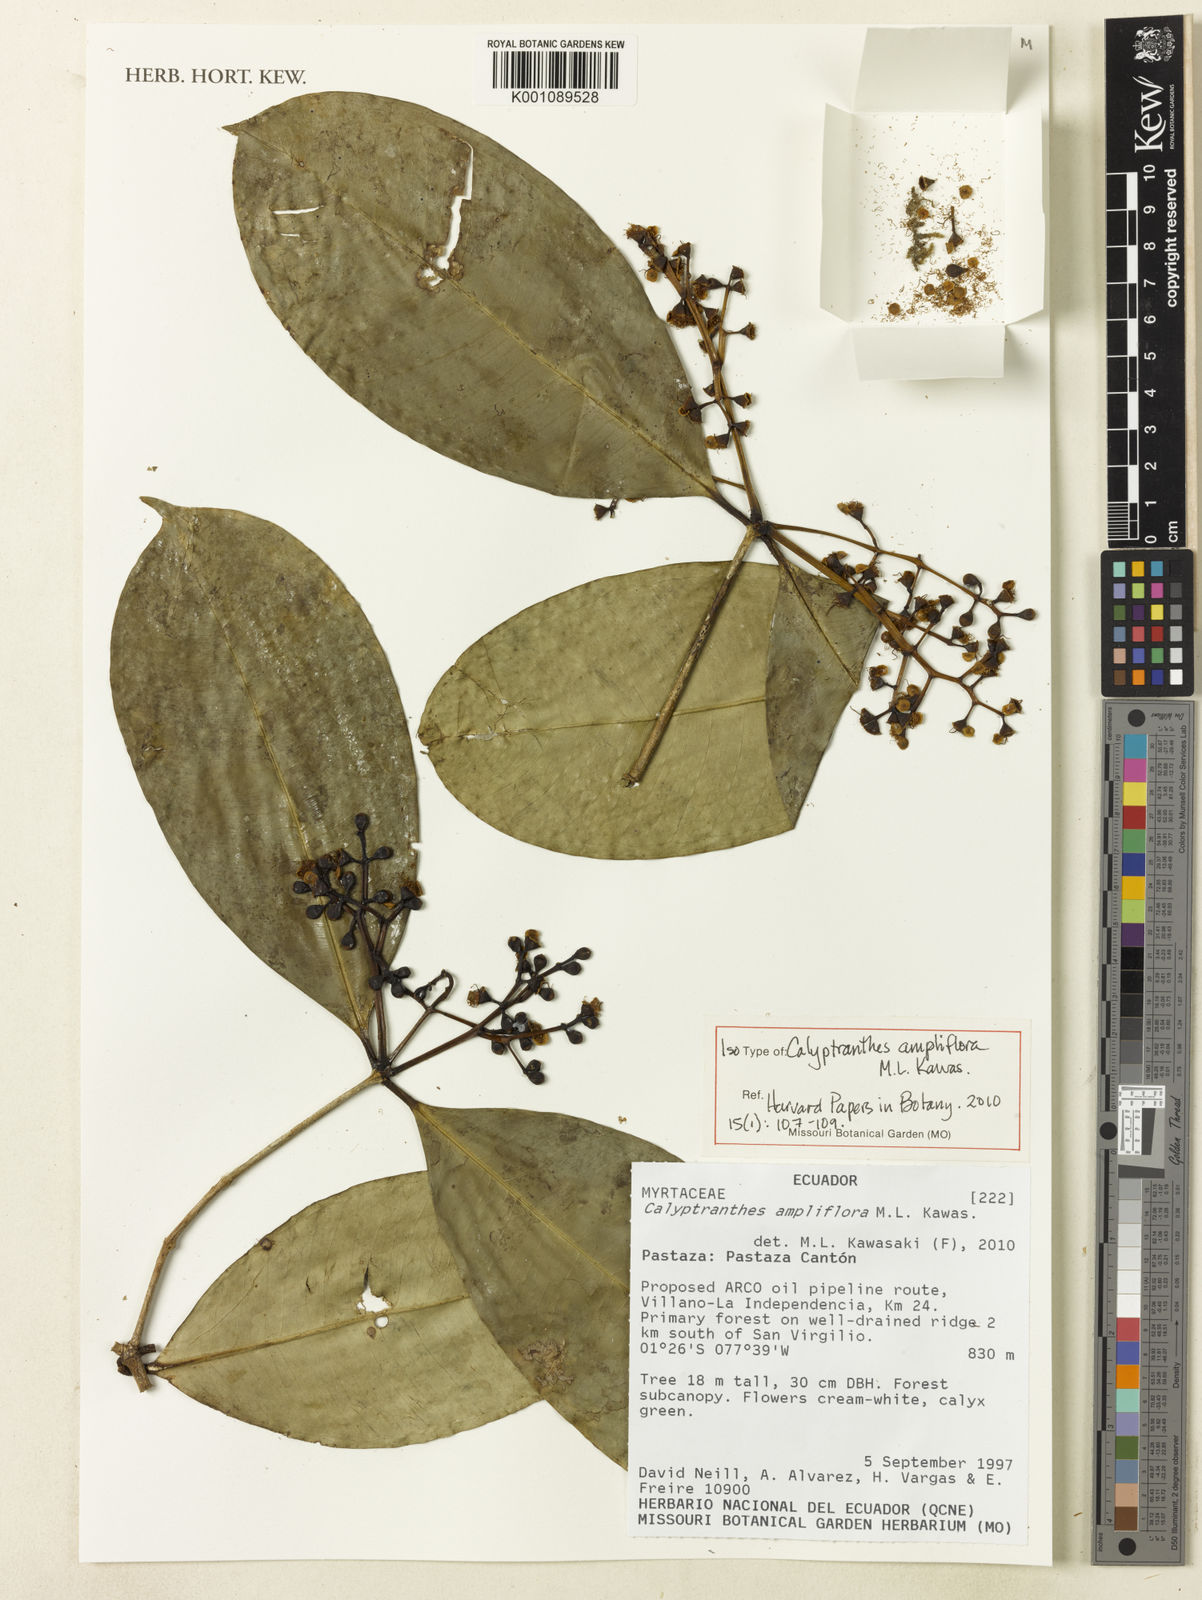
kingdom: Plantae
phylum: Tracheophyta
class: Magnoliopsida
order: Myrtales
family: Myrtaceae
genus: Myrcia
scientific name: Myrcia ampliflora
